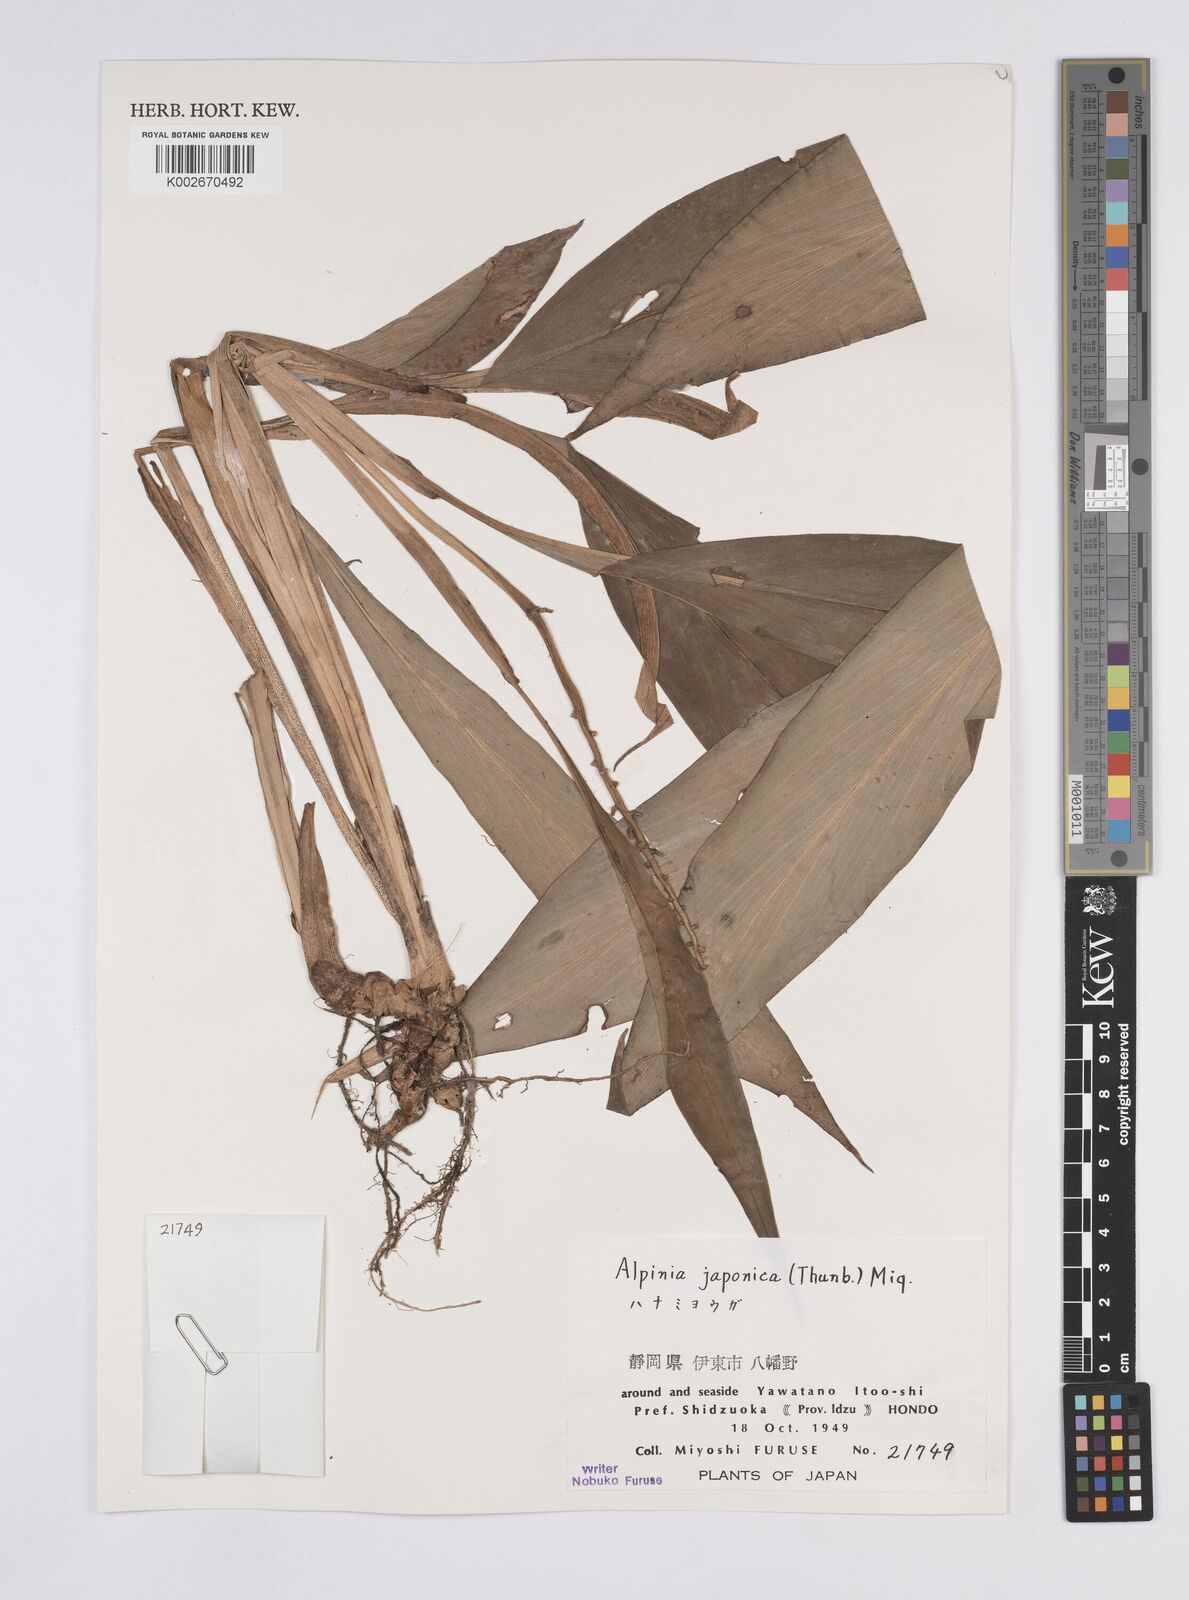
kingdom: Plantae
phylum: Tracheophyta
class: Liliopsida
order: Zingiberales
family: Zingiberaceae
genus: Alpinia
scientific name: Alpinia japonica
